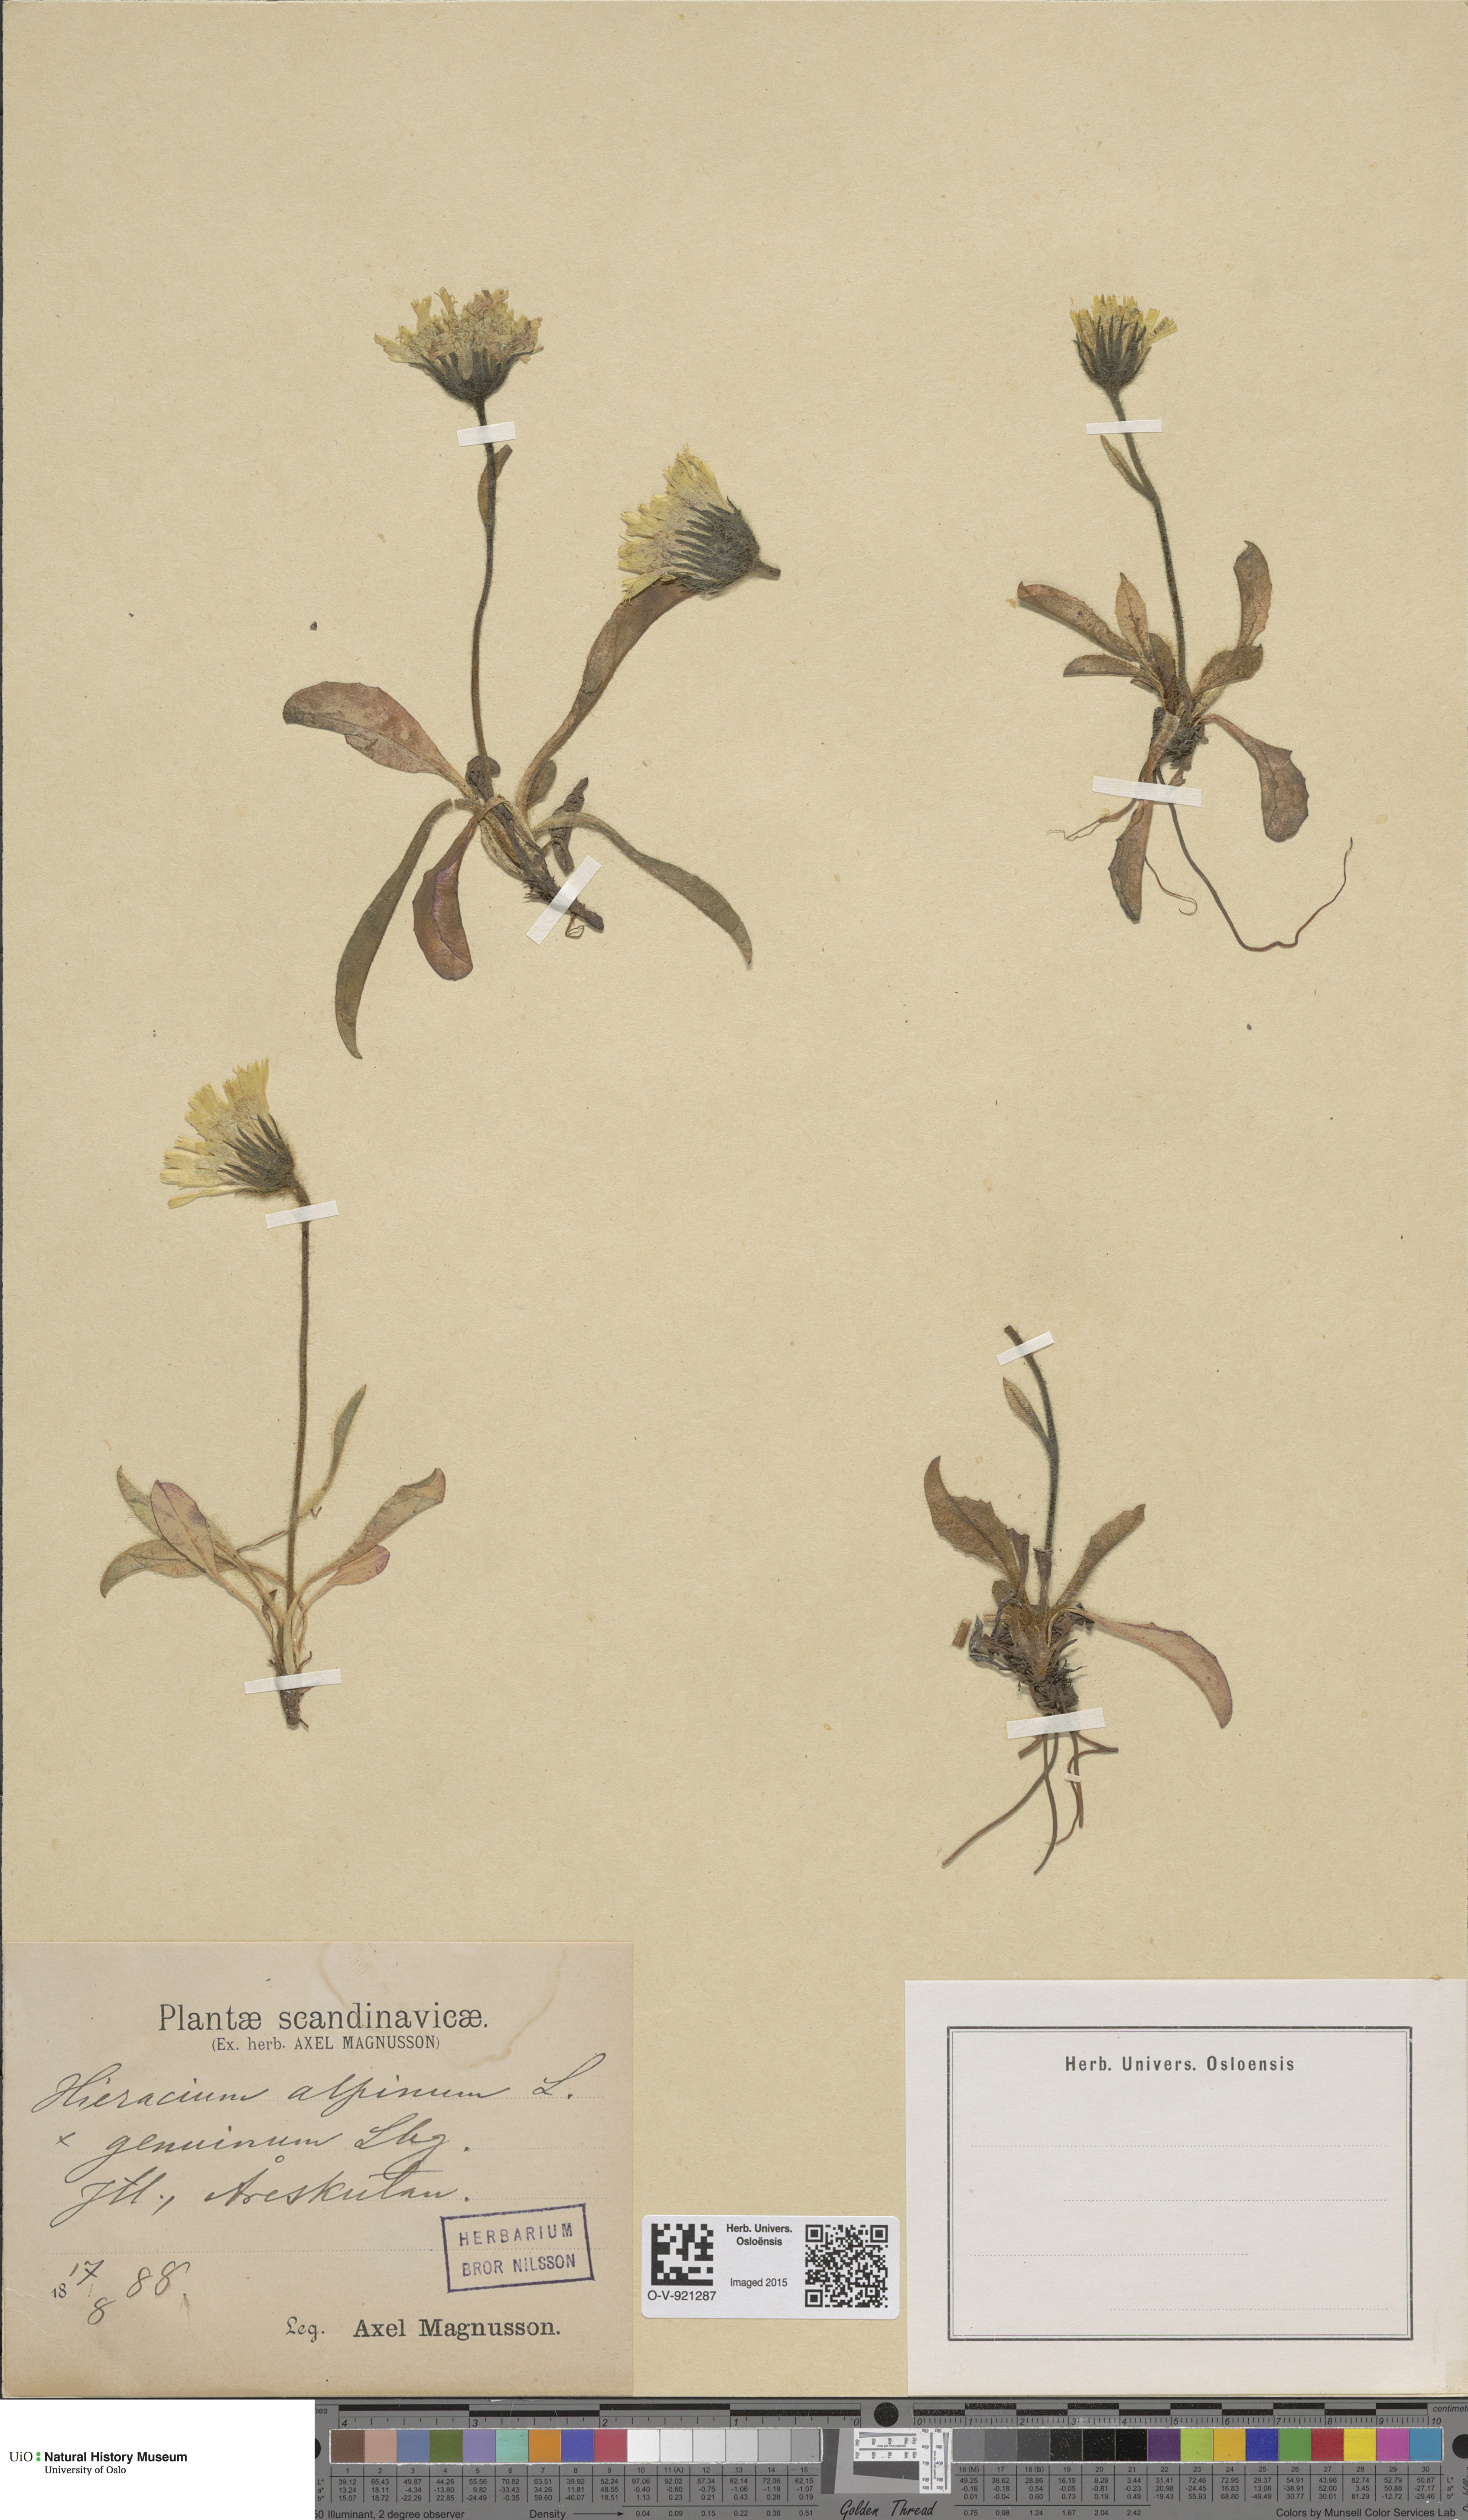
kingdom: Plantae
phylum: Tracheophyta
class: Magnoliopsida
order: Asterales
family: Asteraceae
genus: Hieracium
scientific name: Hieracium alpinum
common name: Alpine hawkweed
